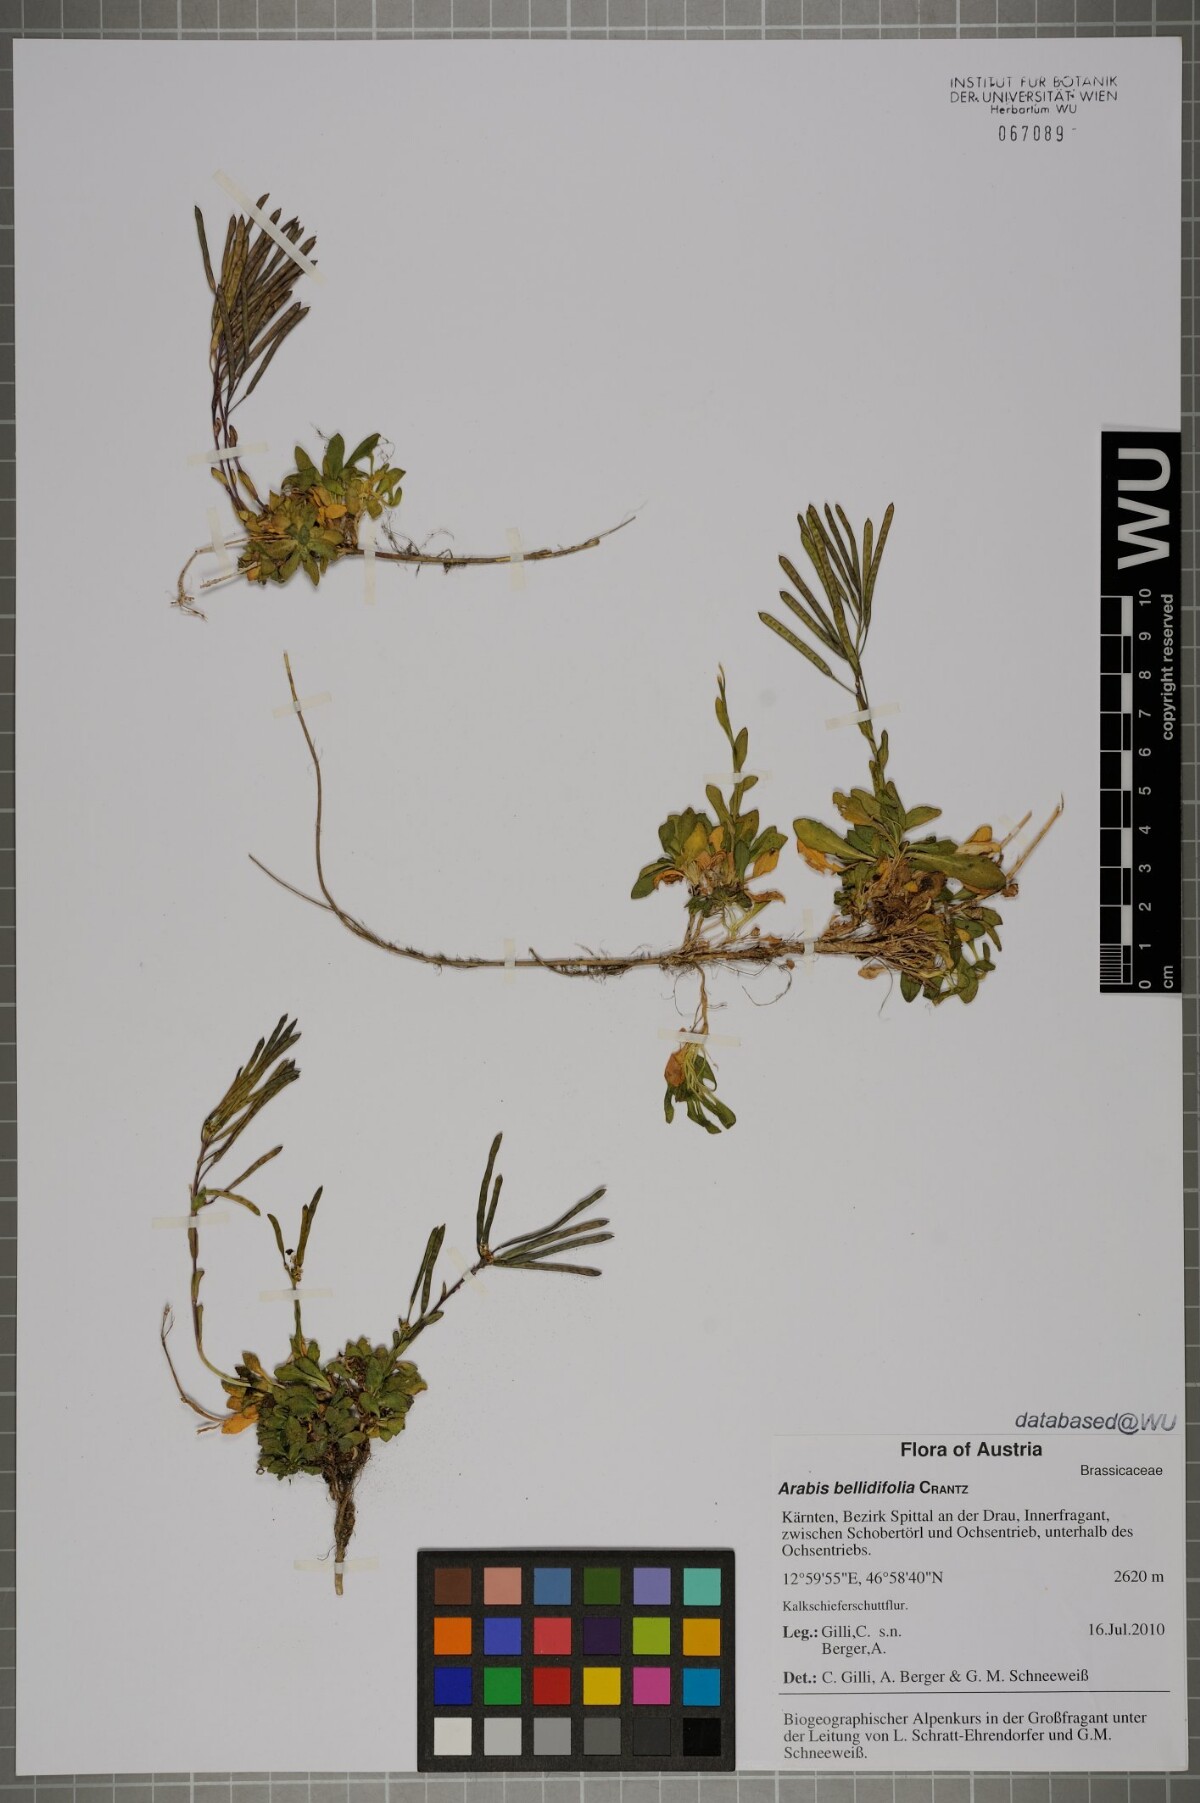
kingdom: Plantae
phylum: Tracheophyta
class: Magnoliopsida
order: Brassicales
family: Brassicaceae
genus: Arabis
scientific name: Arabis pumila
